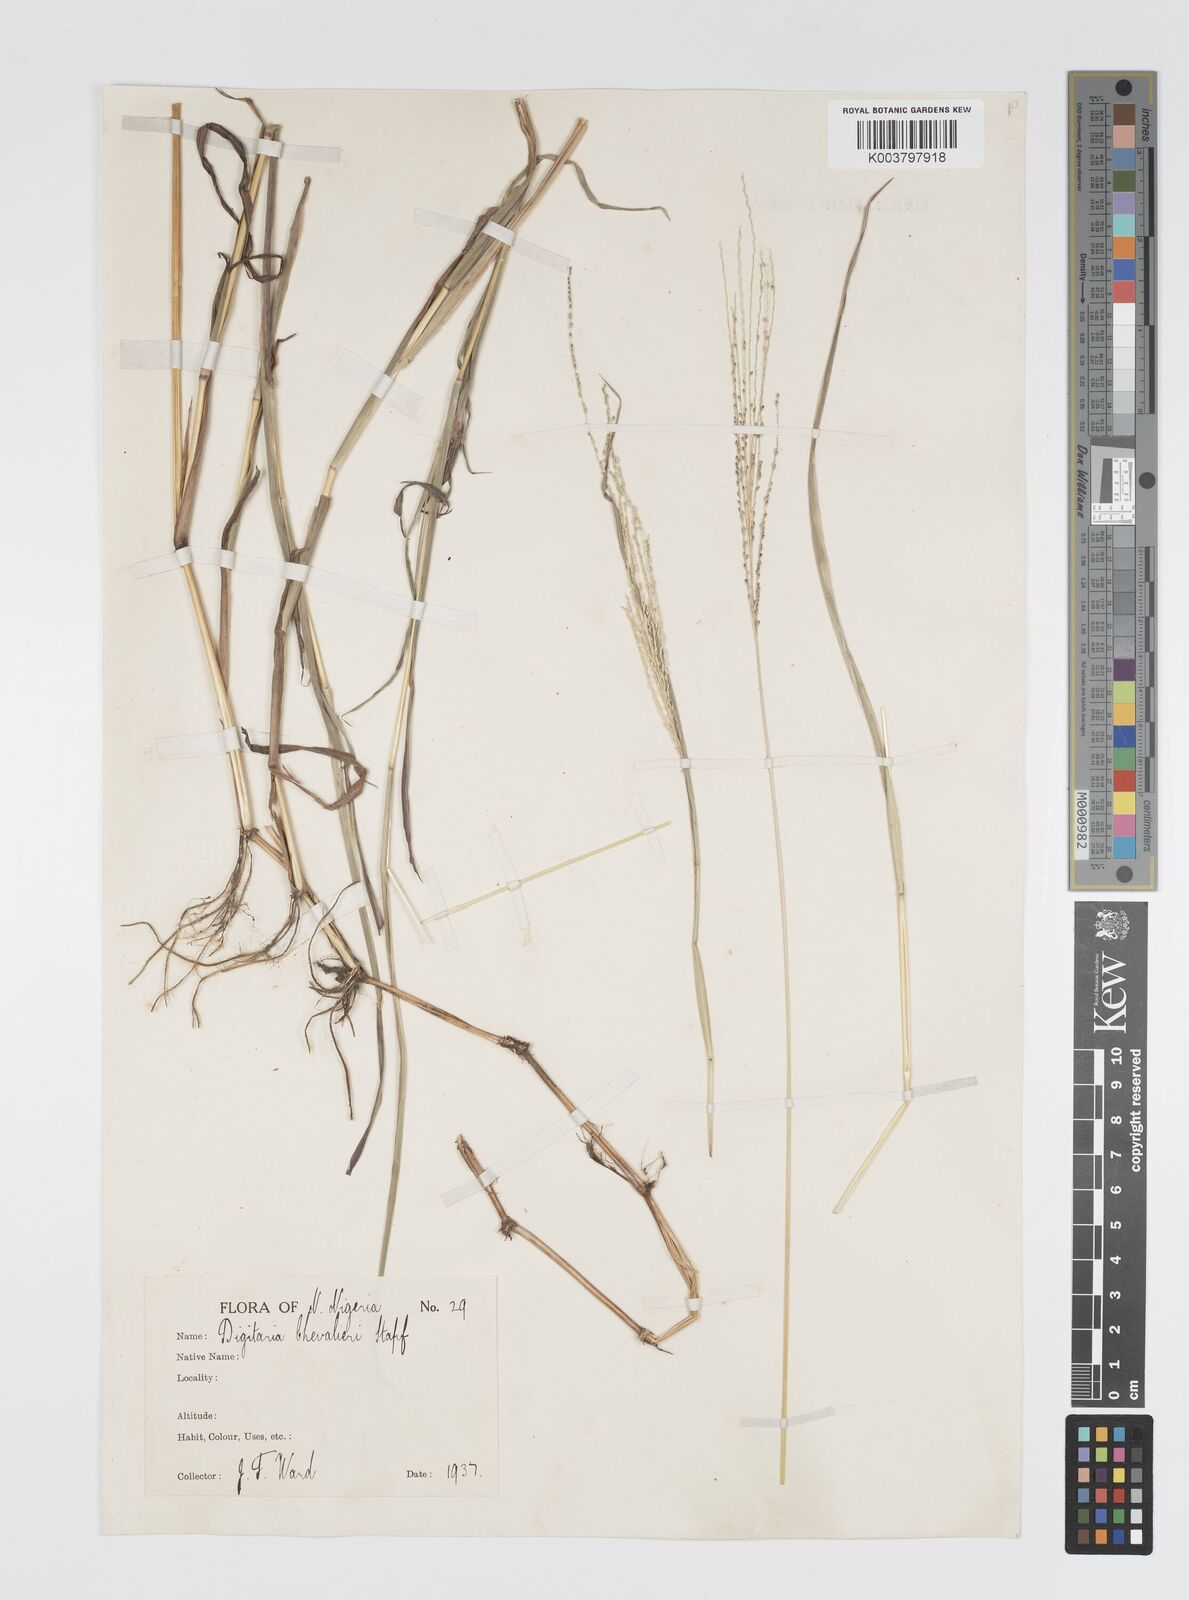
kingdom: Plantae
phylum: Tracheophyta
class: Liliopsida
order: Poales
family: Poaceae
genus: Digitaria
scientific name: Digitaria leptorhachis
